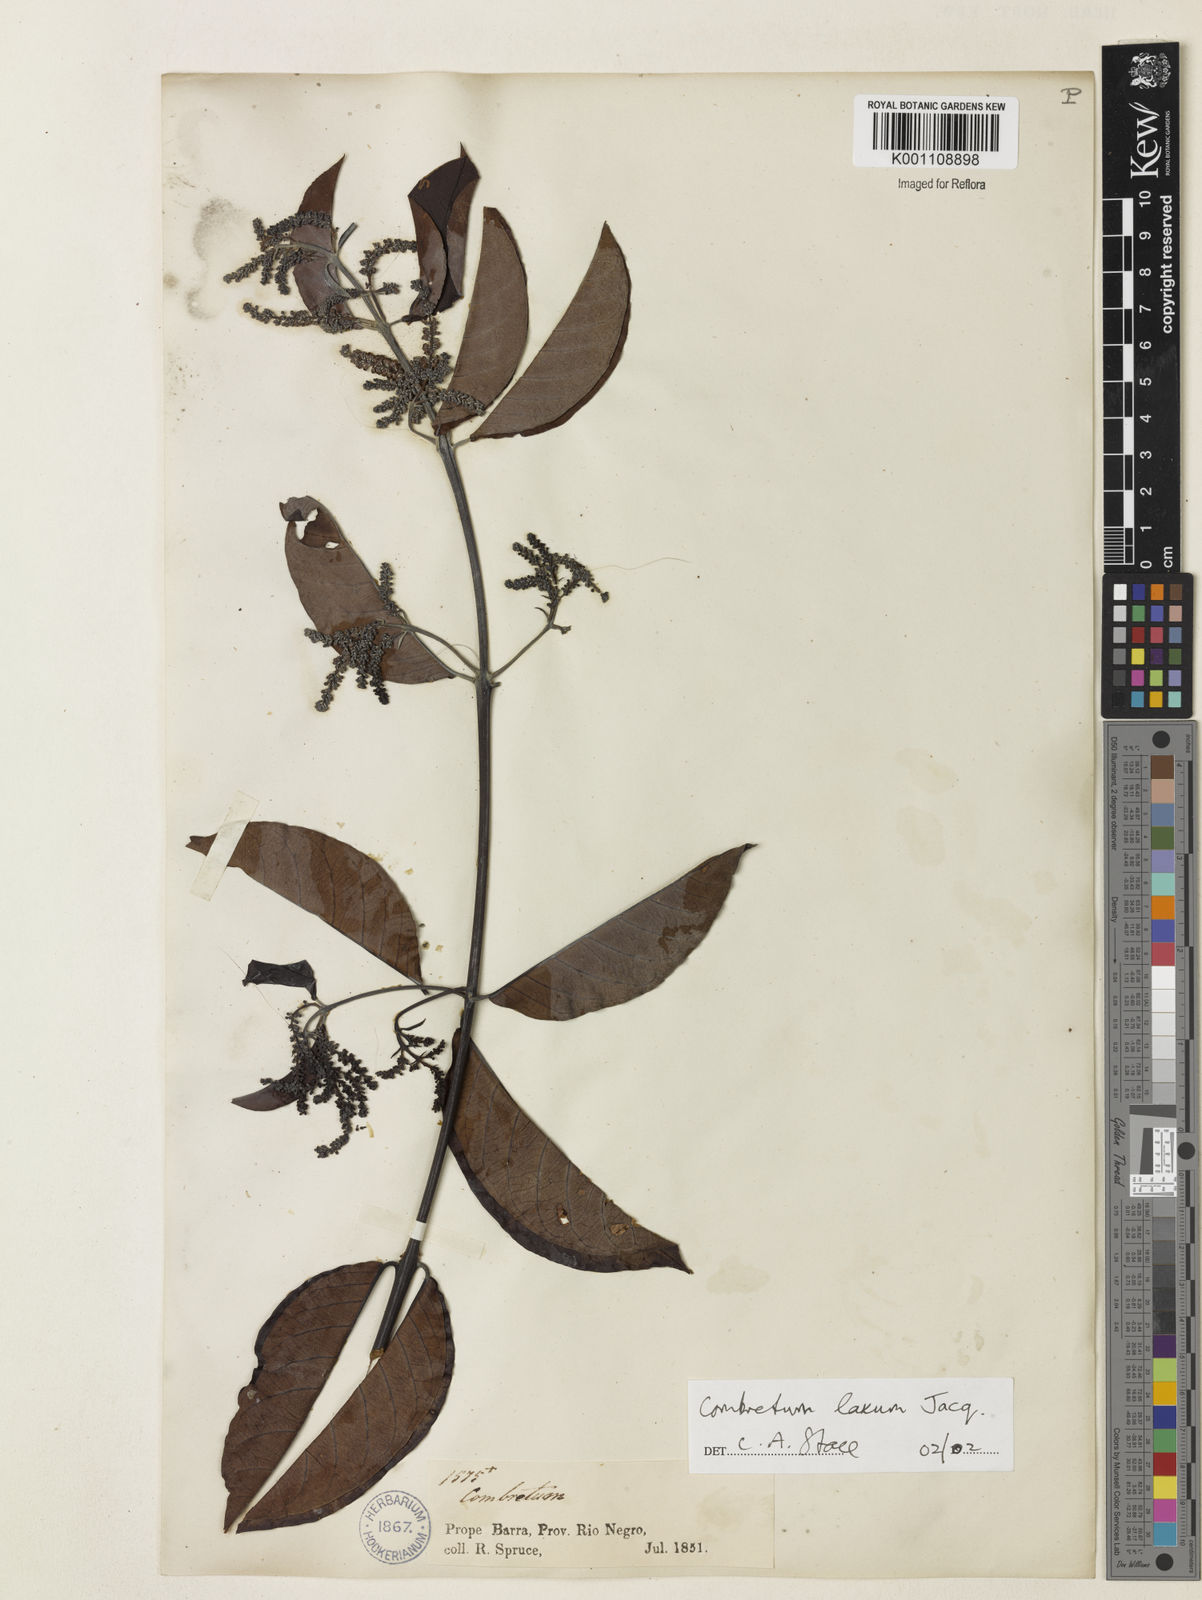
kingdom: Plantae
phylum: Tracheophyta
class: Magnoliopsida
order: Myrtales
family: Combretaceae
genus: Combretum
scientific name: Combretum laxum
